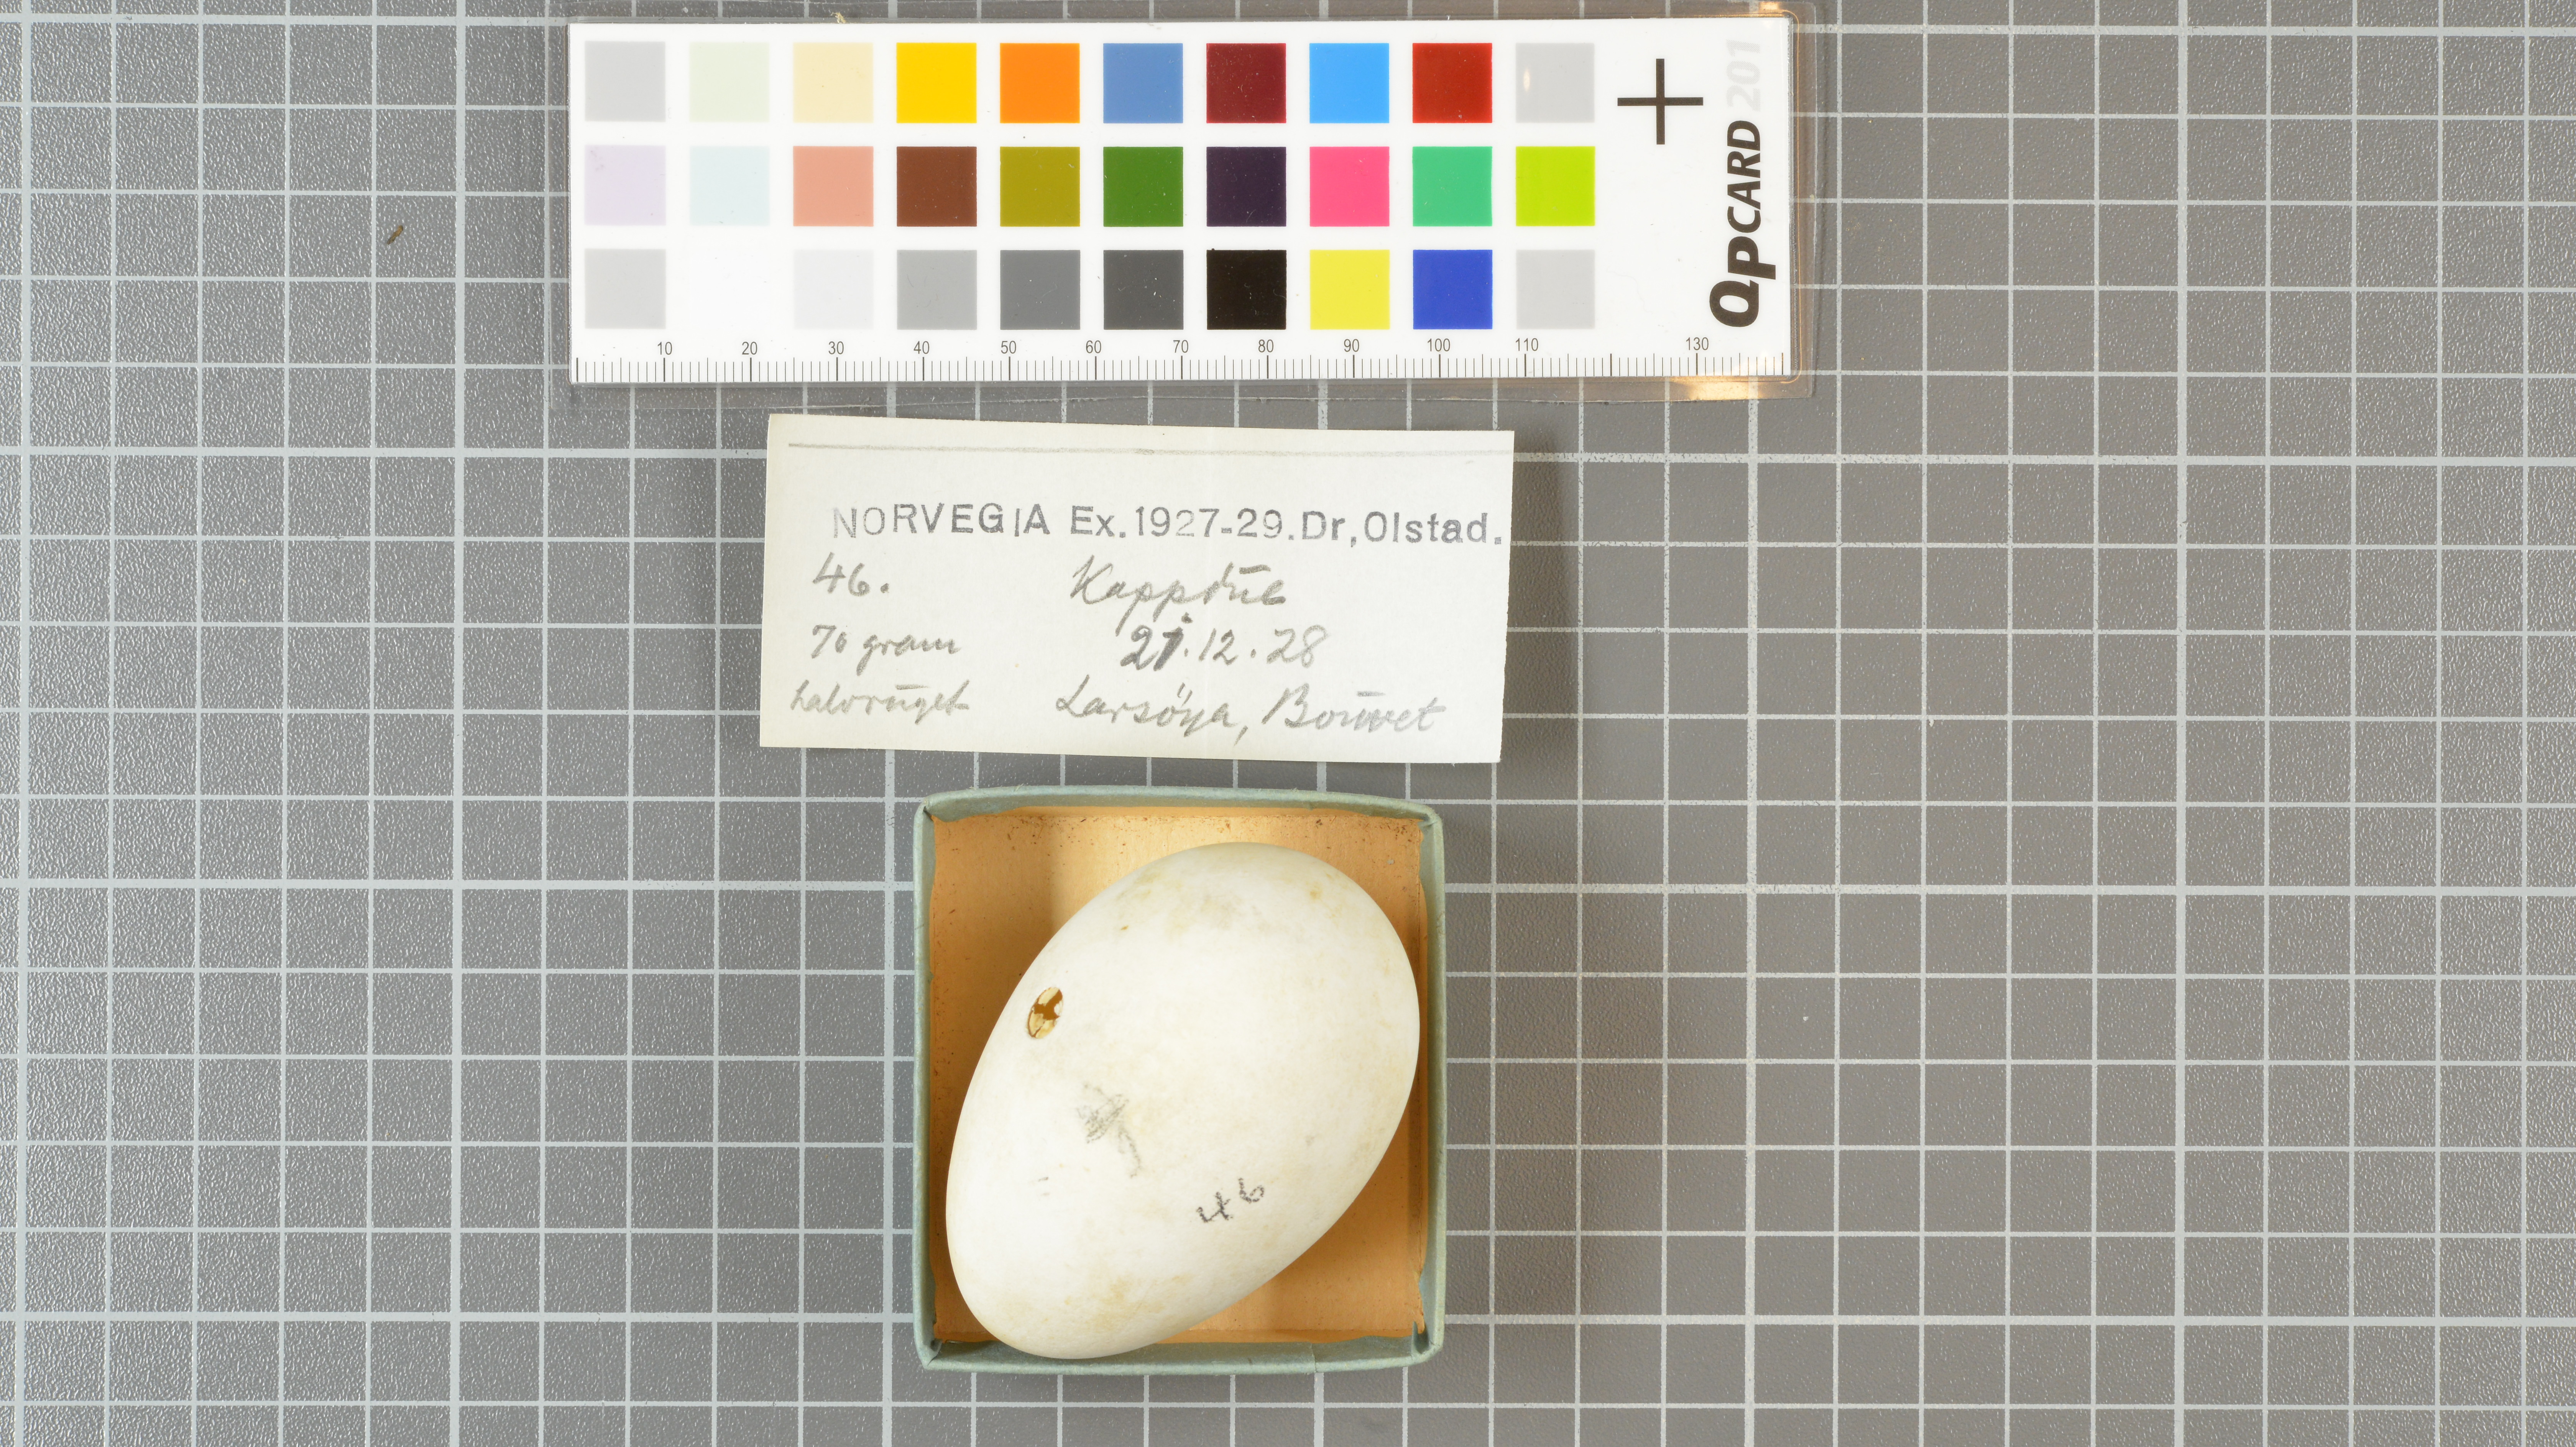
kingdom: Animalia
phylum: Chordata
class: Aves
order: Procellariiformes
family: Procellariidae
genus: Daption
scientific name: Daption capense
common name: Cape petrel
